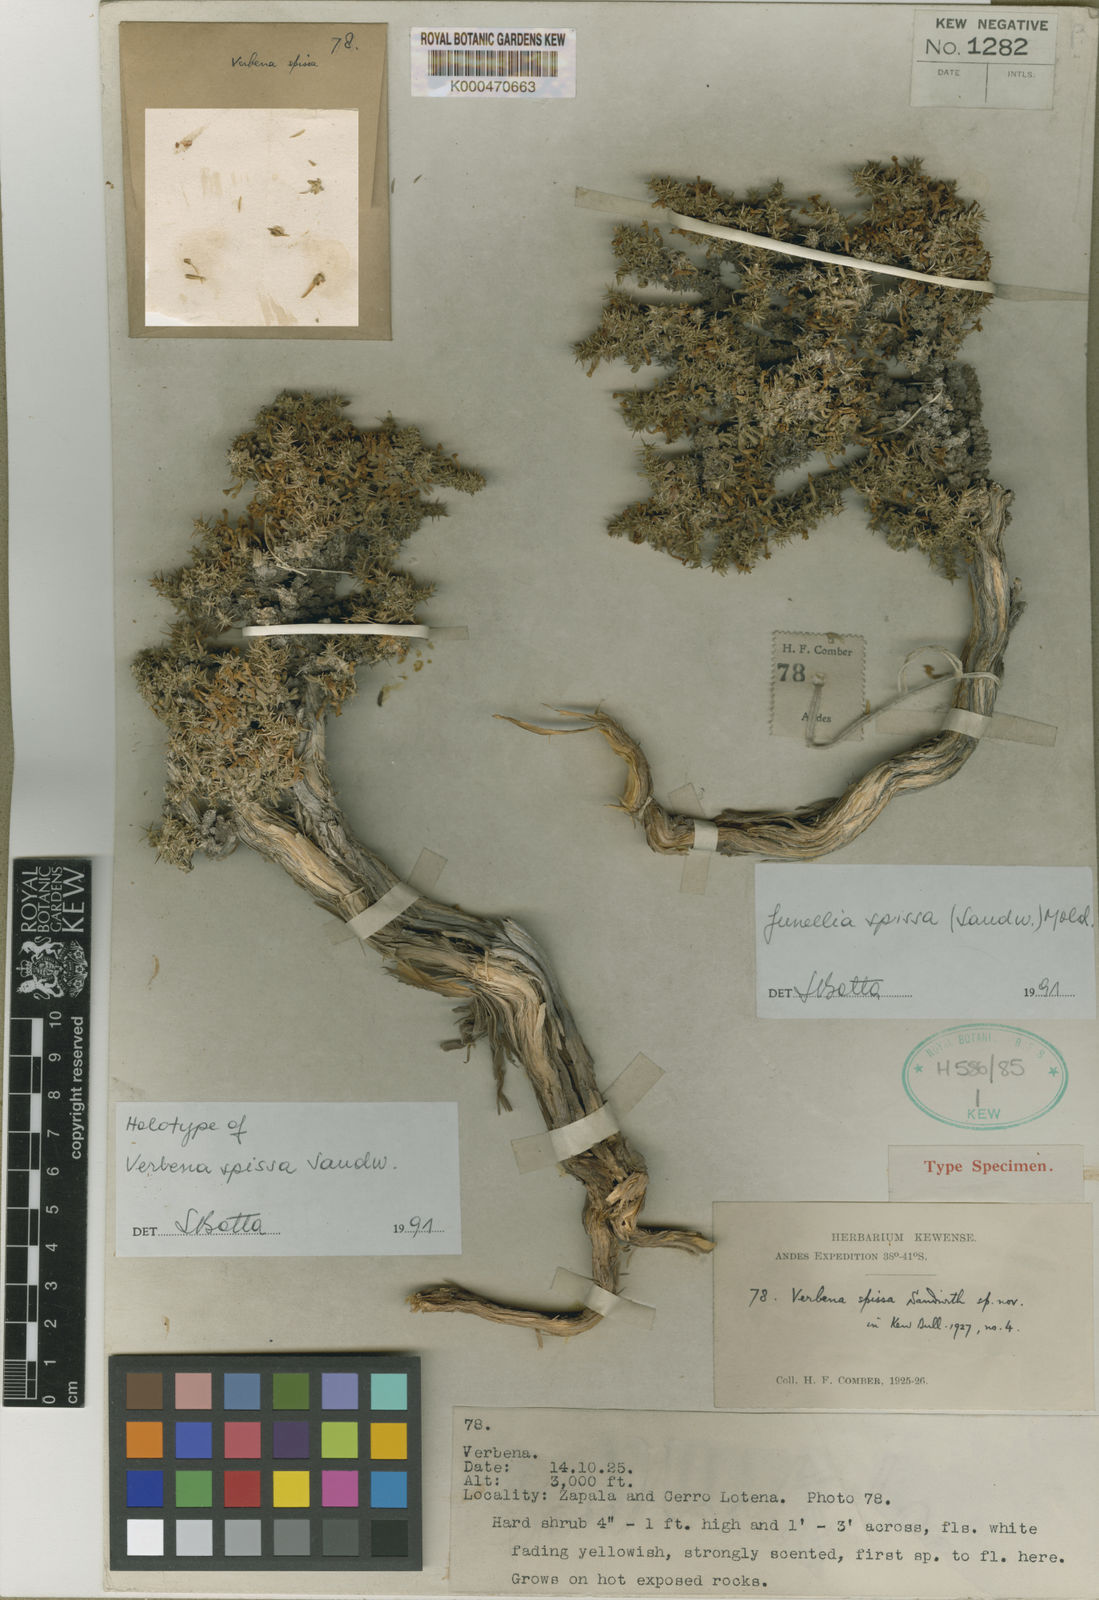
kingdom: Plantae
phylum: Tracheophyta
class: Magnoliopsida
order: Lamiales
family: Verbenaceae
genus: Junellia
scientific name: Junellia spissa
